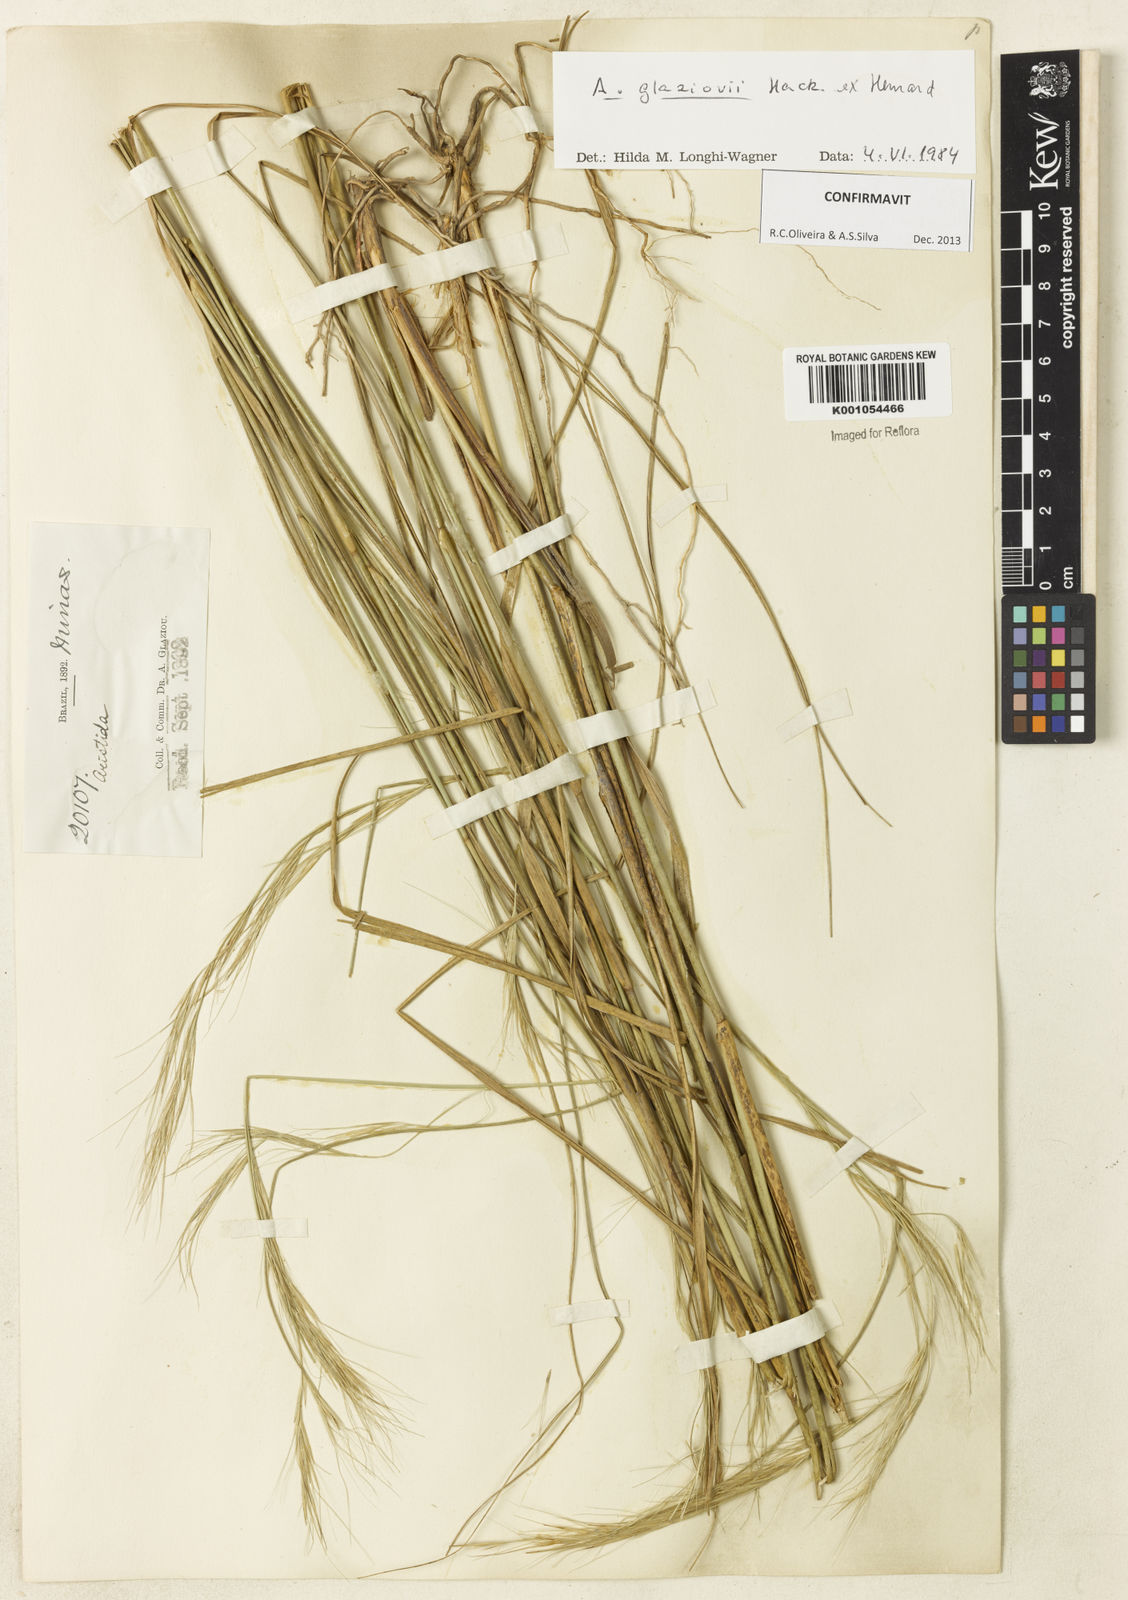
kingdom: Plantae
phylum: Tracheophyta
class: Liliopsida
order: Poales
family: Poaceae
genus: Aristida
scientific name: Aristida glaziovii
